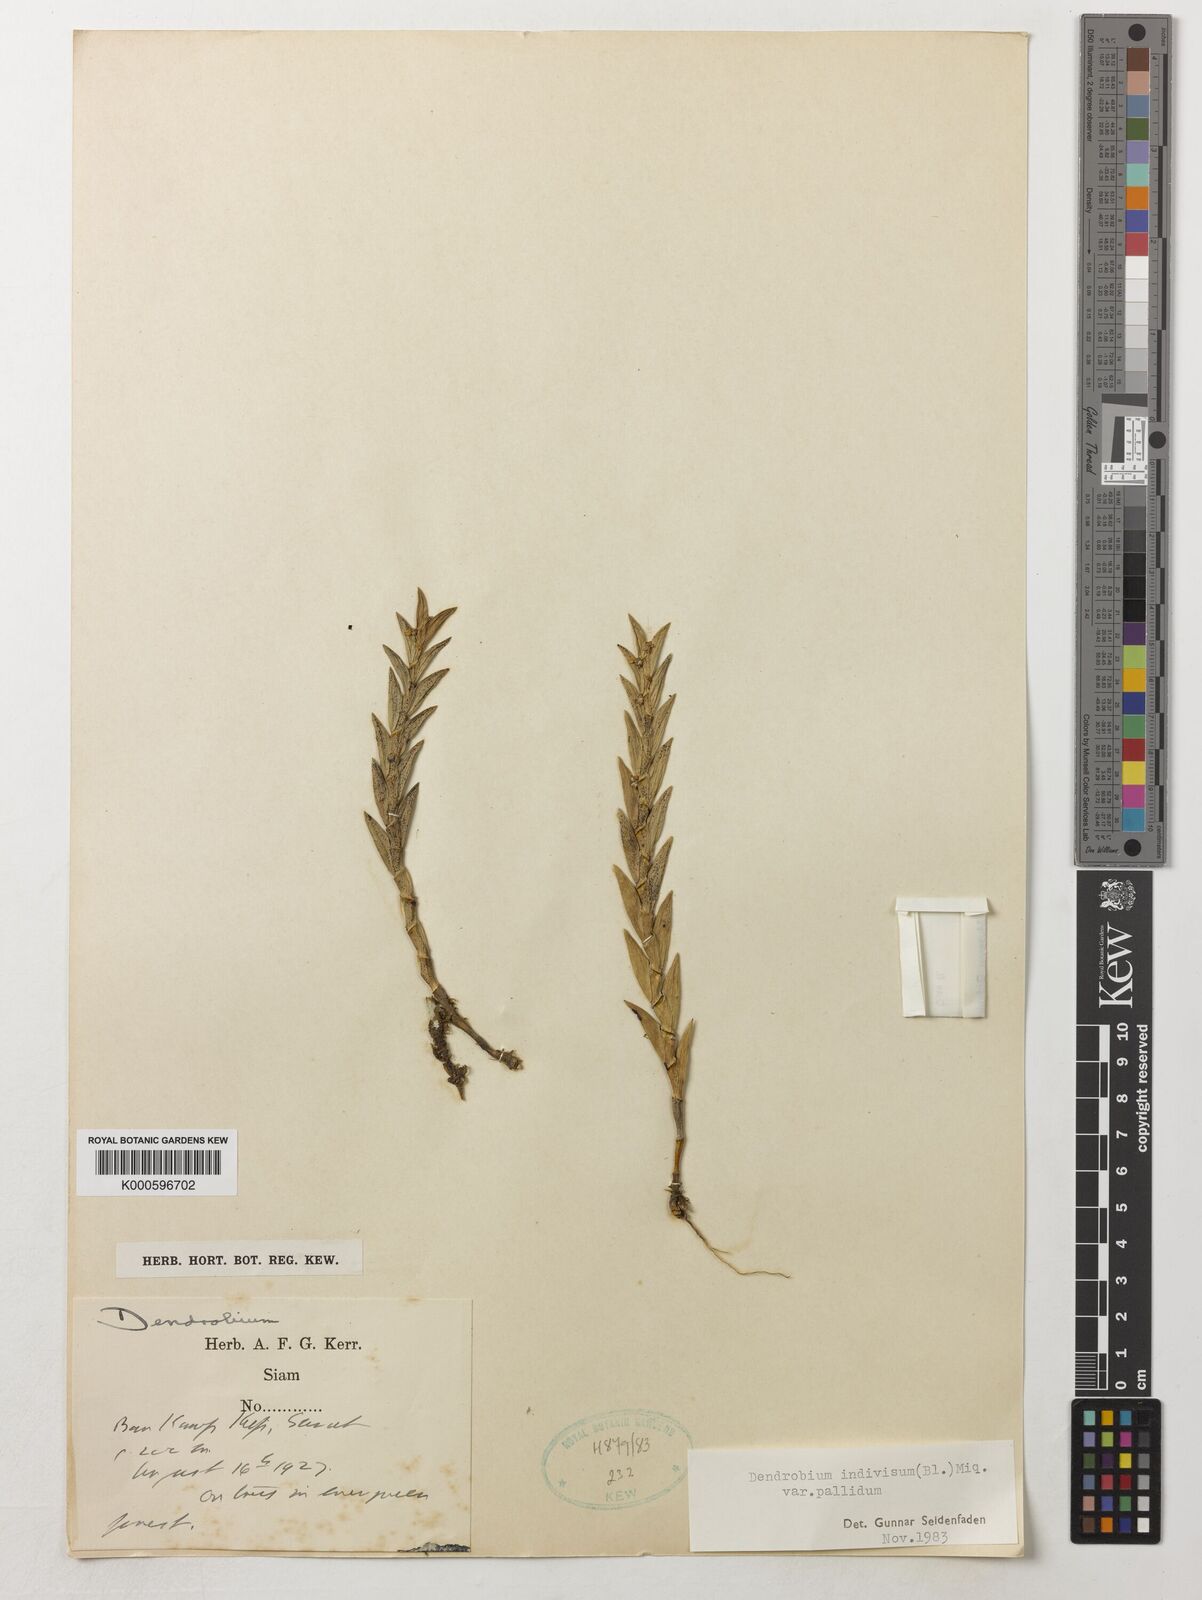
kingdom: Plantae
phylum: Tracheophyta
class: Liliopsida
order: Asparagales
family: Orchidaceae
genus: Dendrobium
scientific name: Dendrobium indivisum
